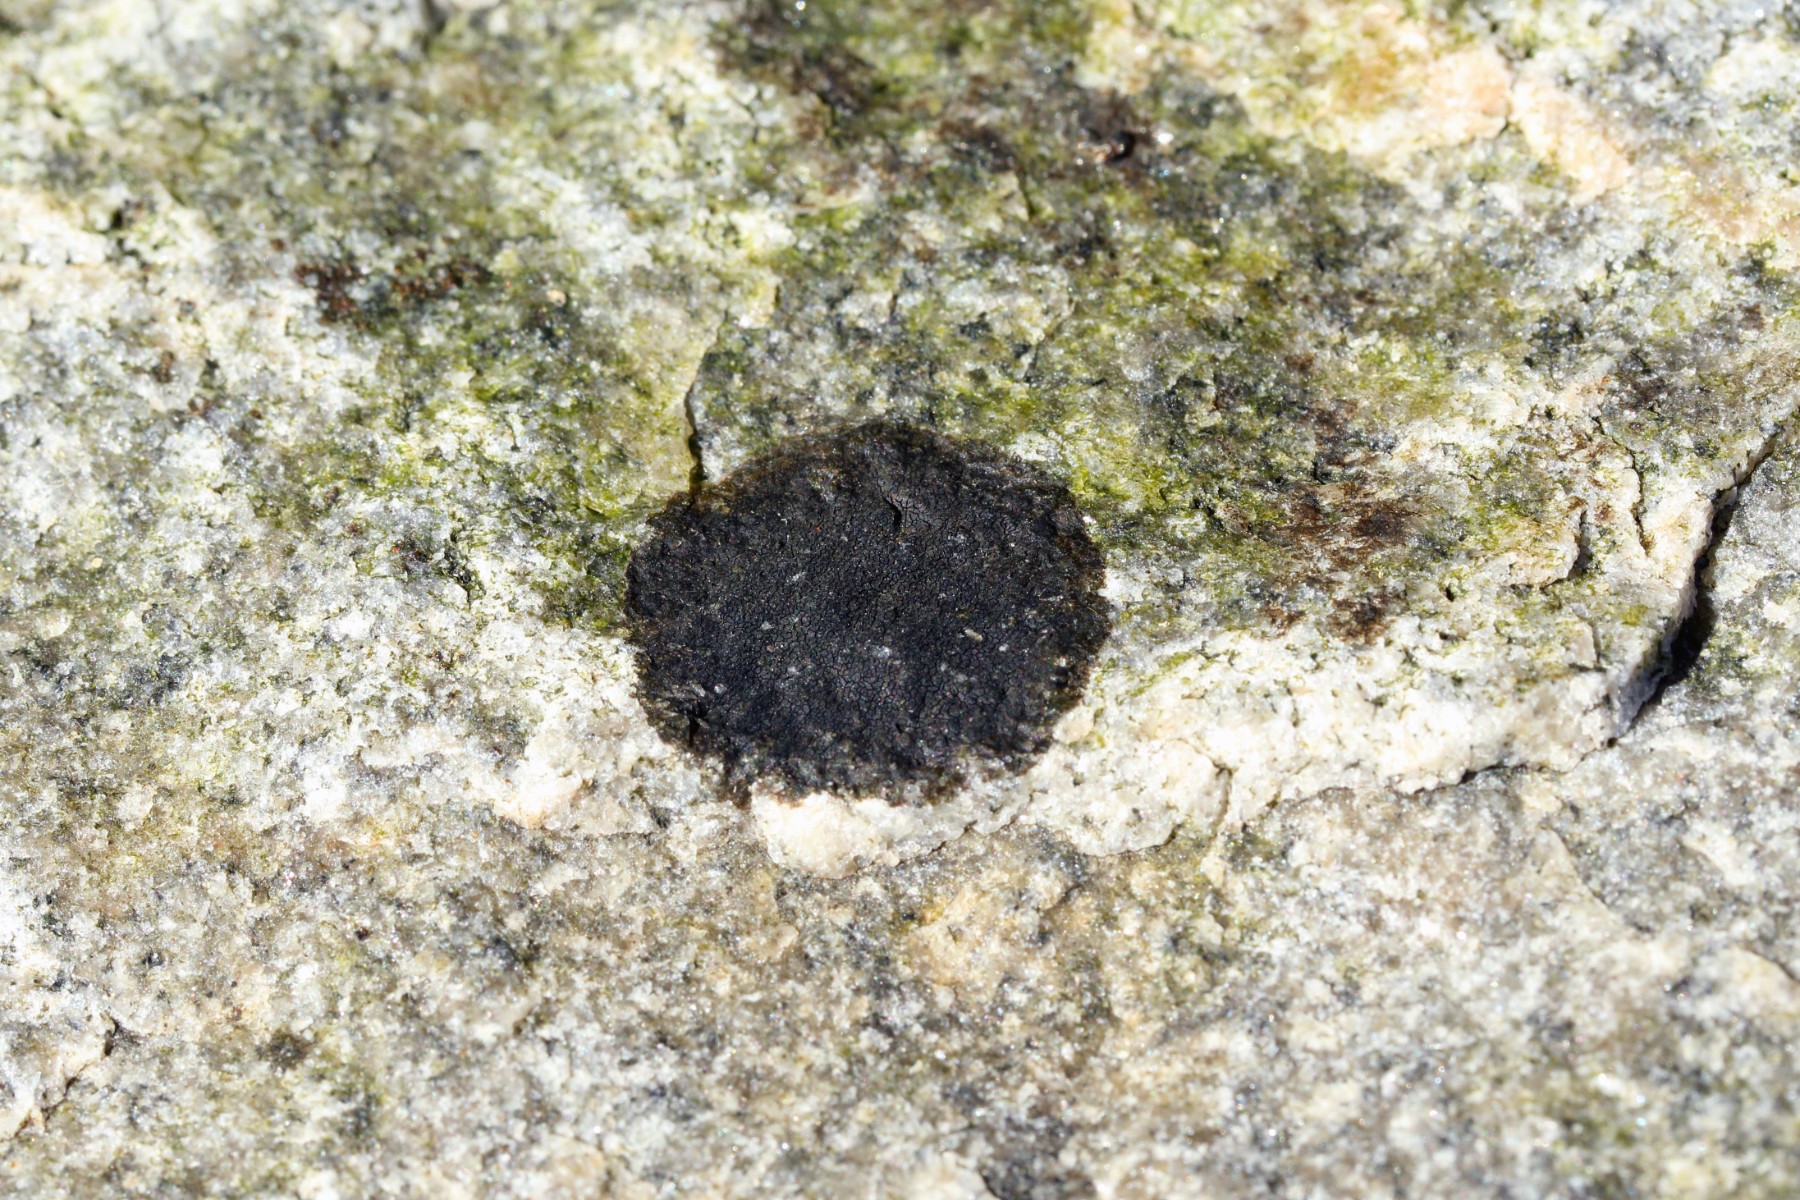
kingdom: Fungi
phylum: Ascomycota
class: Eurotiomycetes
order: Verrucariales
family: Verrucariaceae
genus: Hydropunctaria
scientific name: Hydropunctaria maura
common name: strand-vortelav
